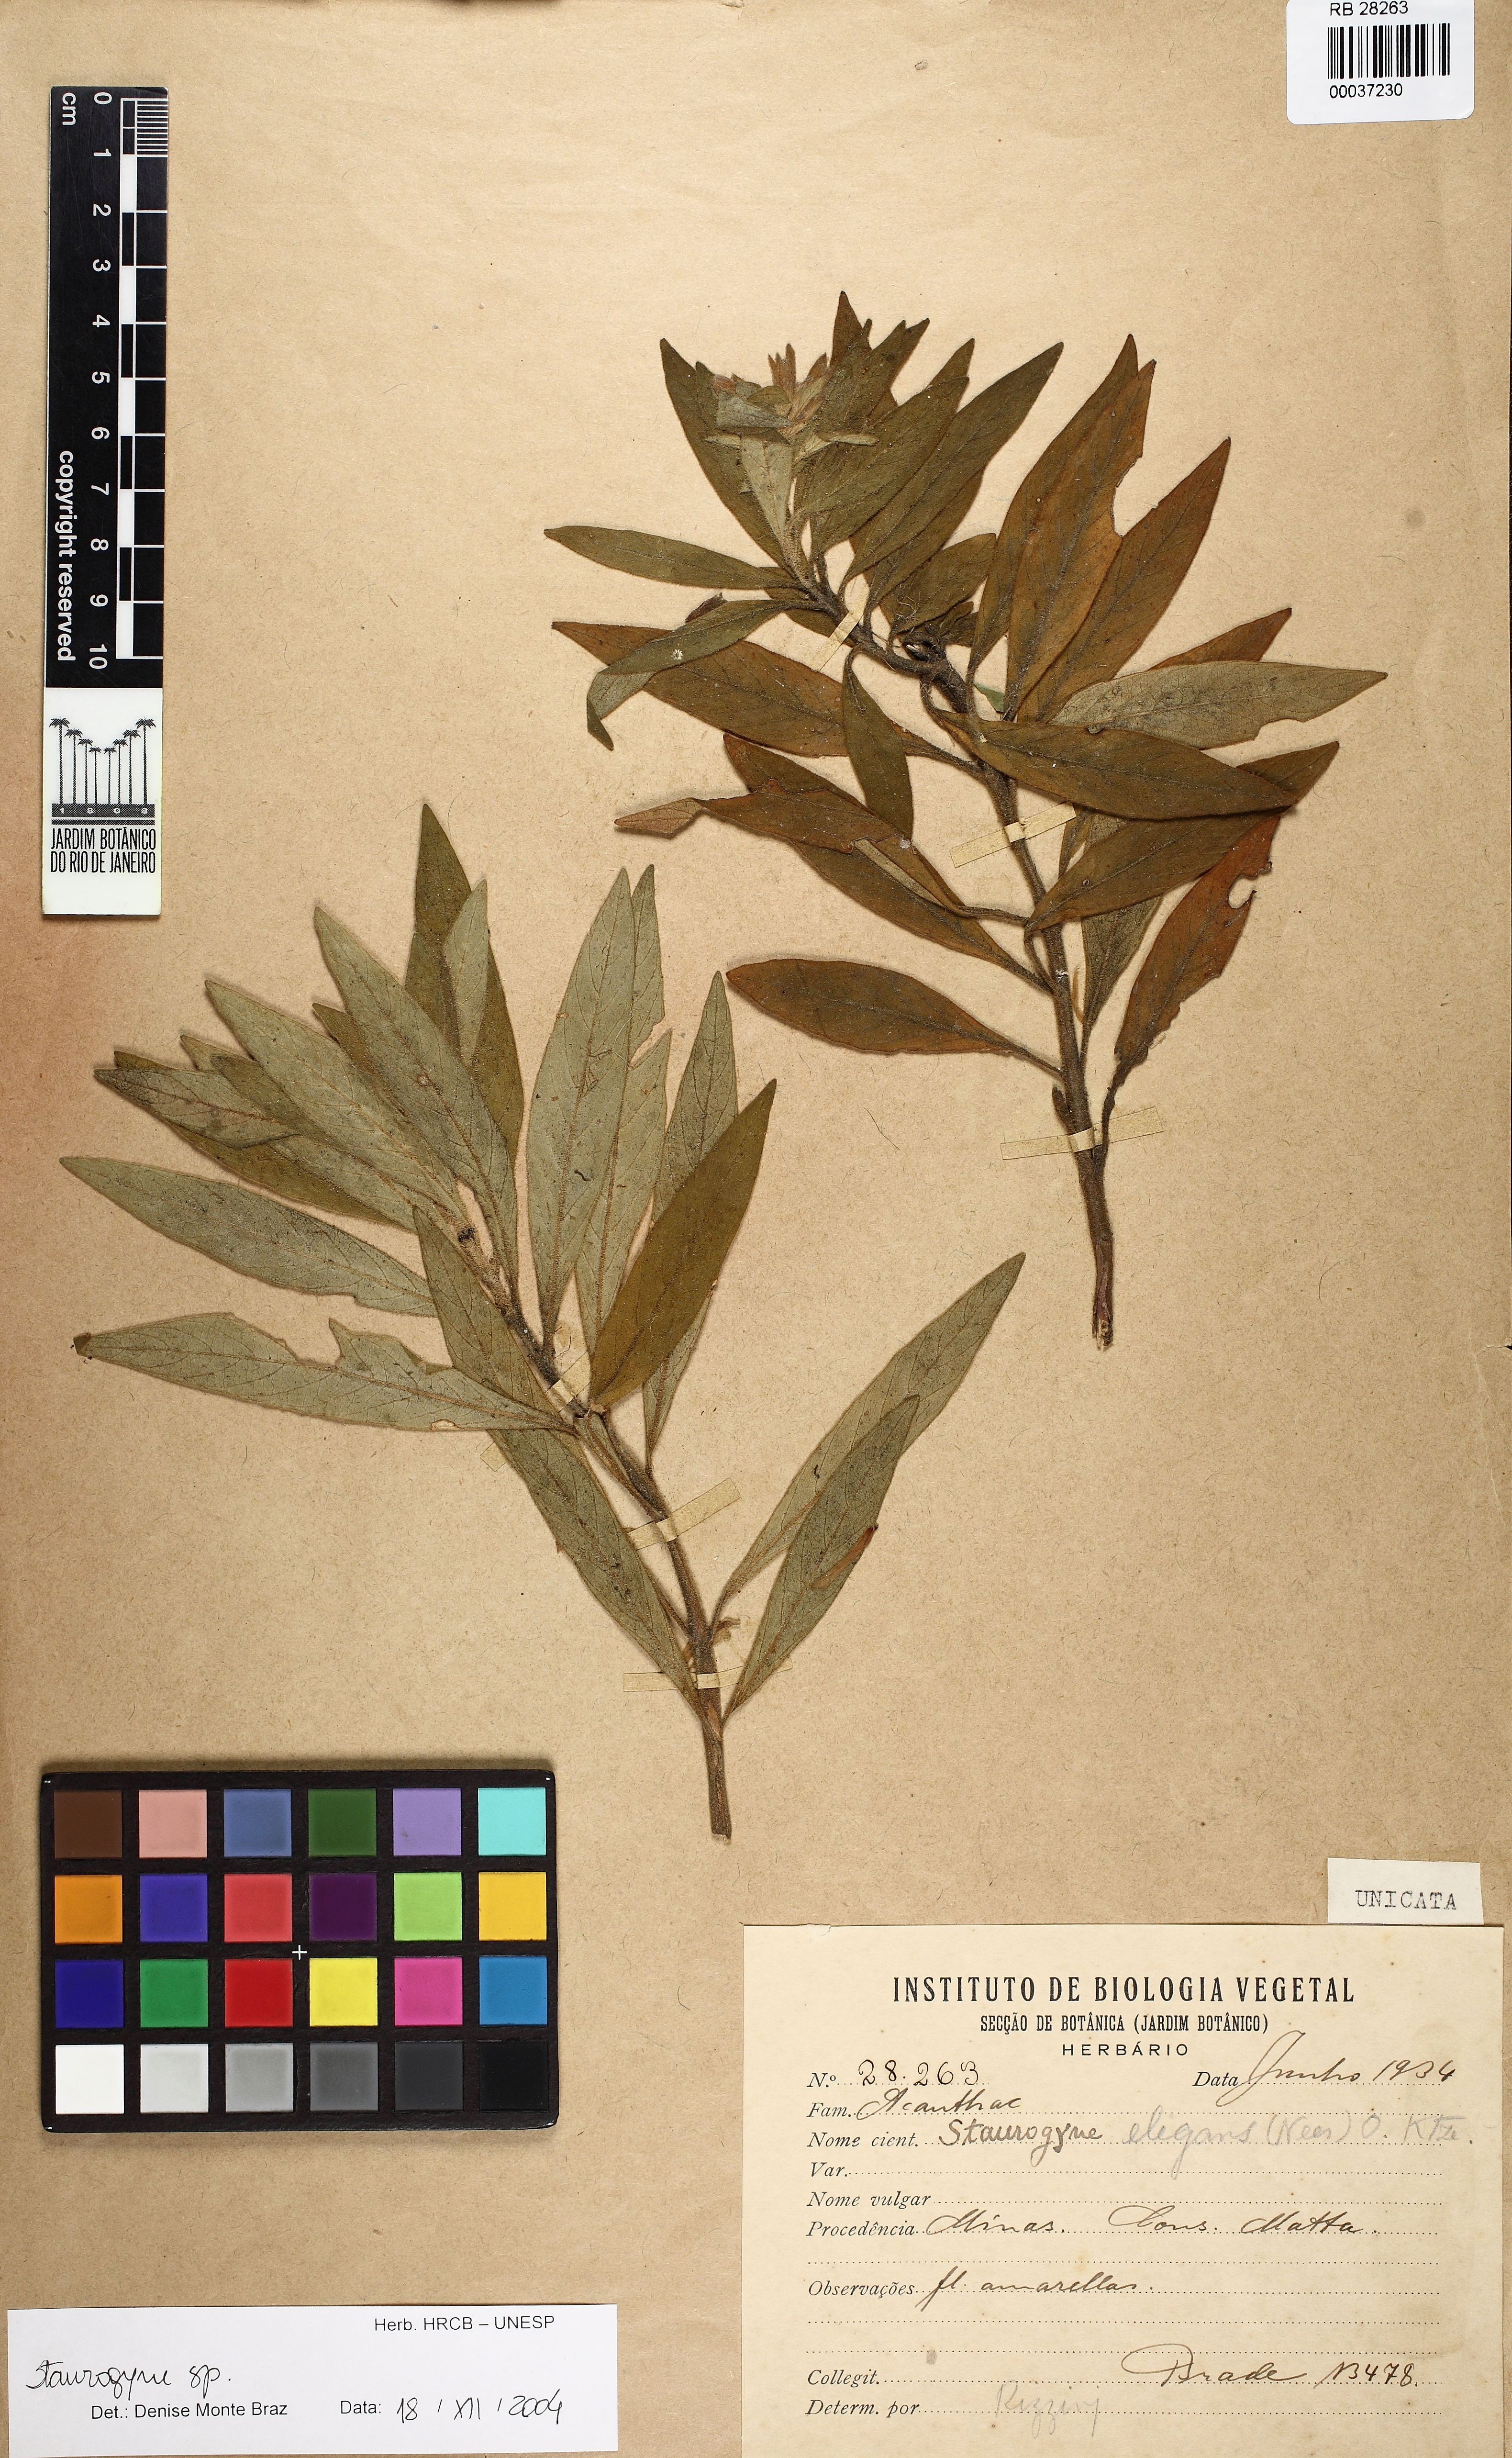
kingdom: Plantae
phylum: Tracheophyta
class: Magnoliopsida
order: Lamiales
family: Acanthaceae
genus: Staurogyne
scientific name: Staurogyne
